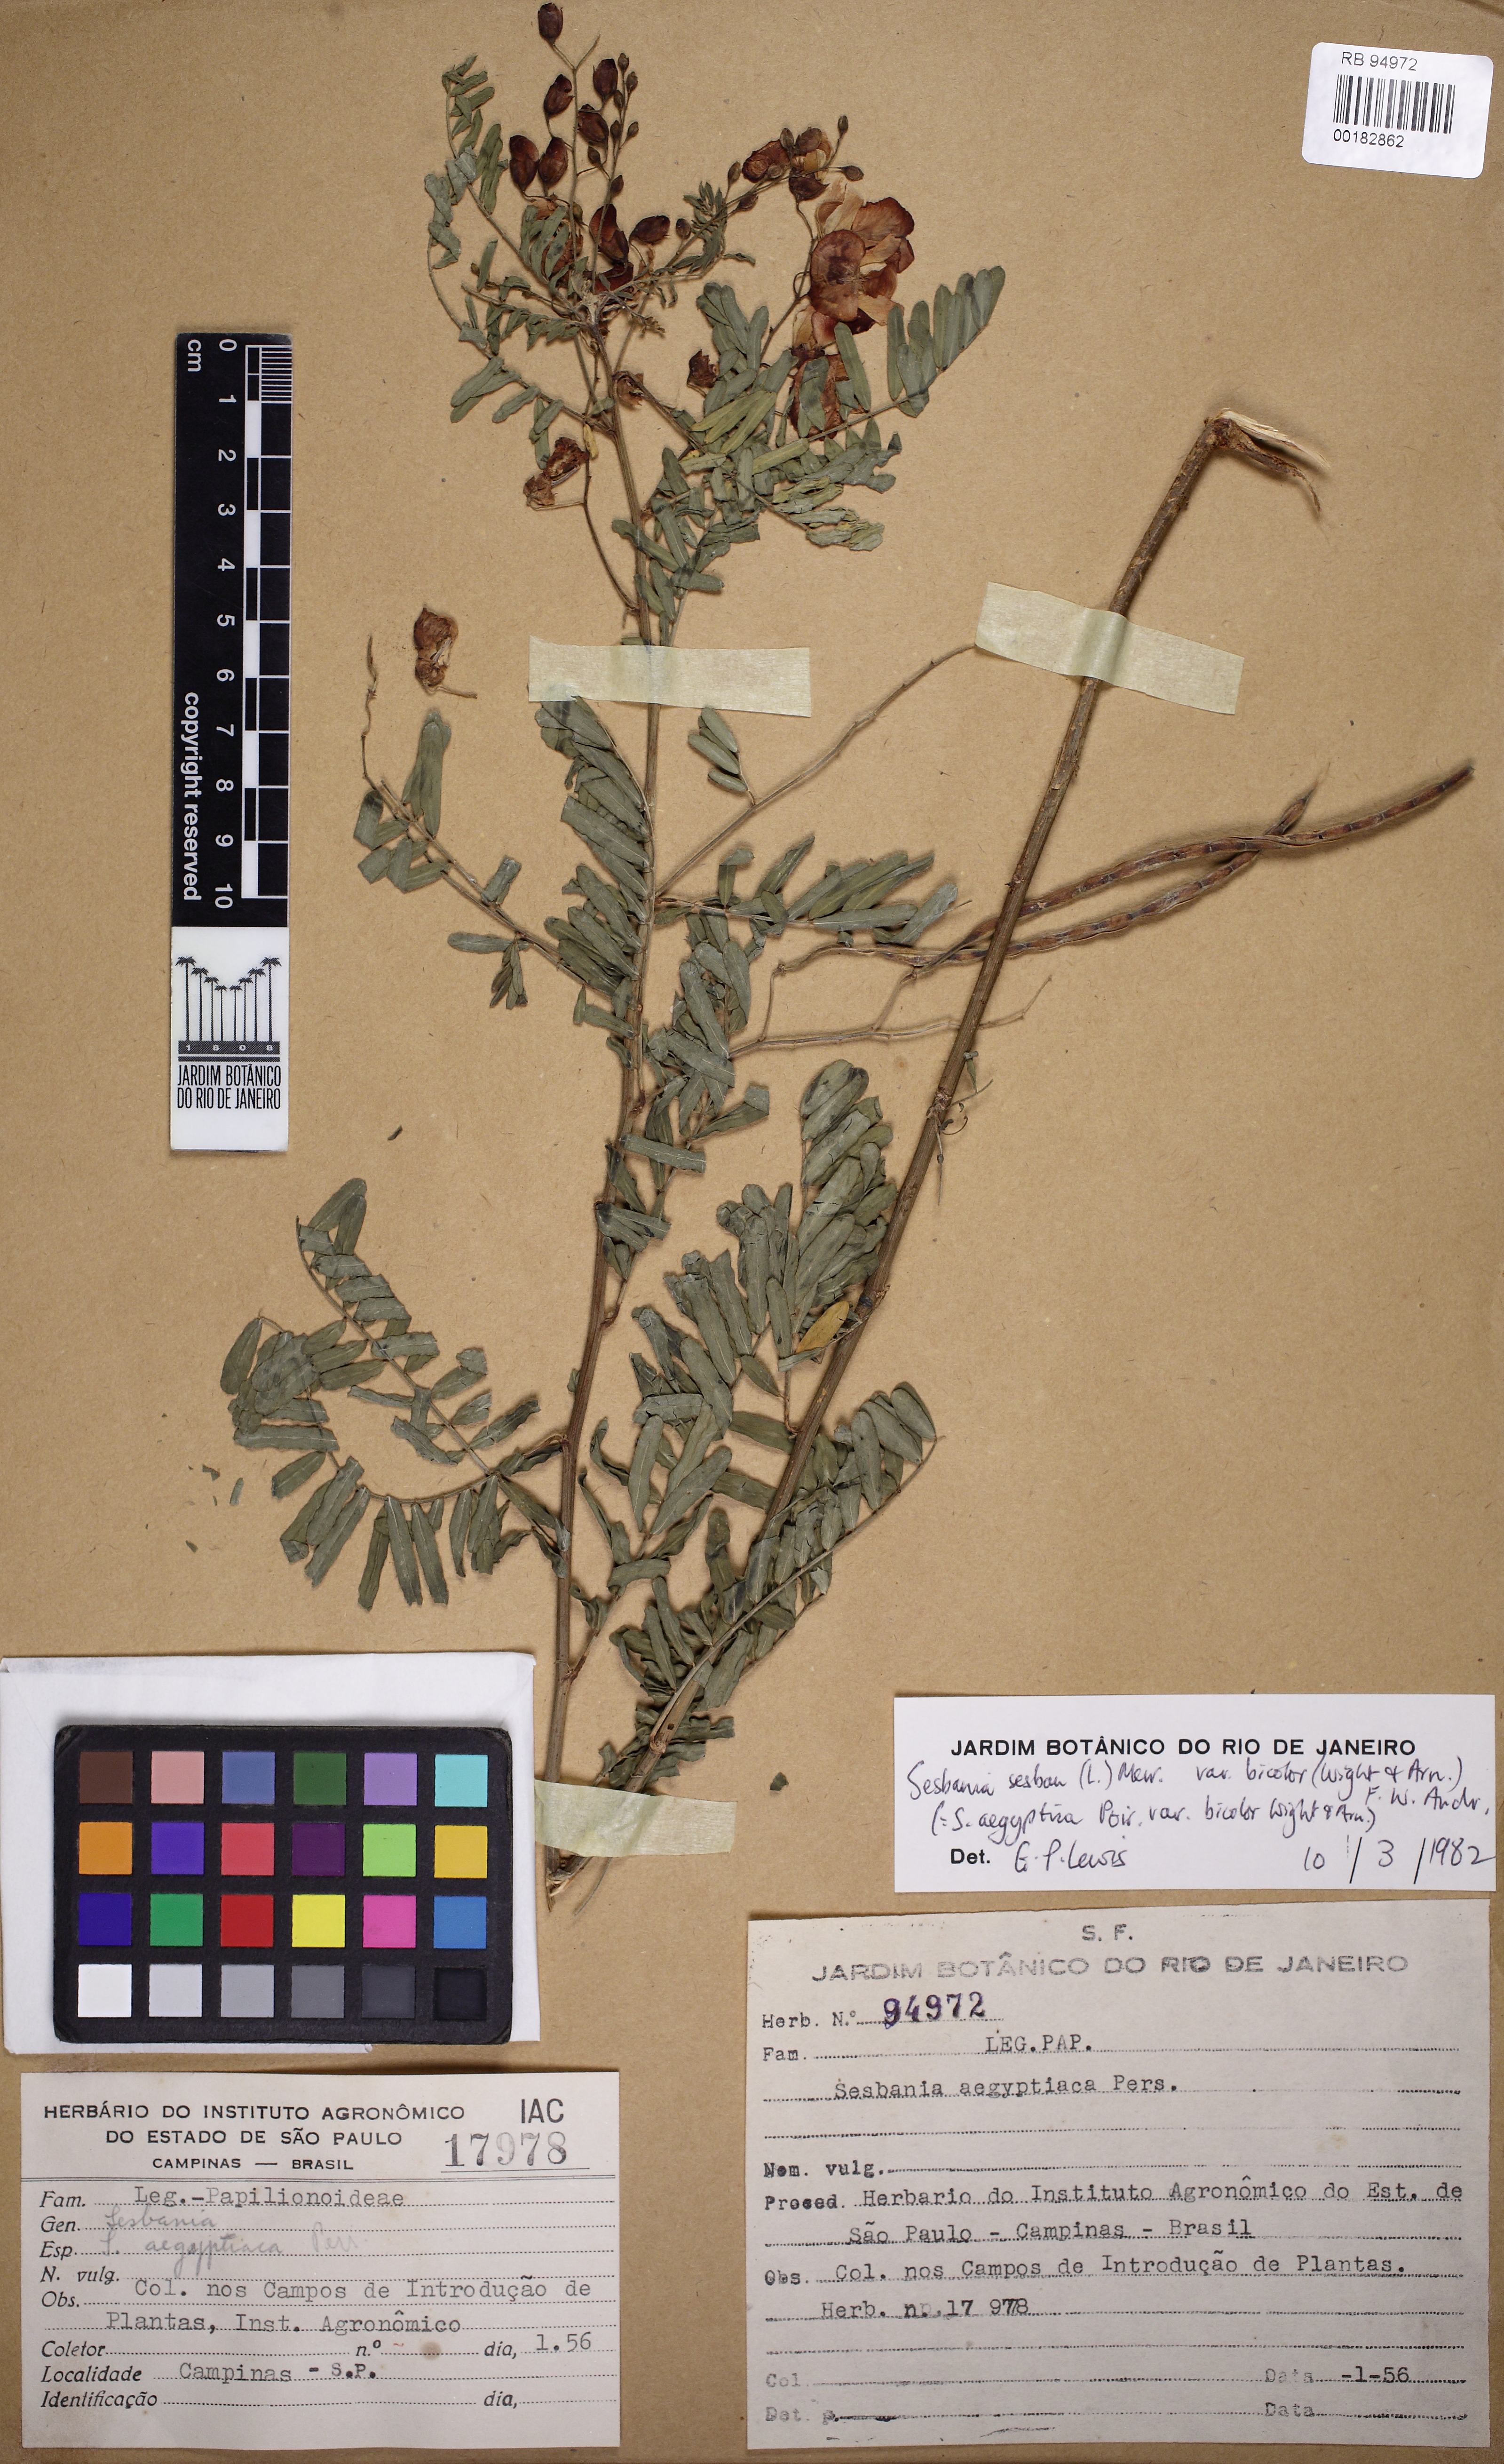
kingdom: Plantae
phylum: Tracheophyta
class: Magnoliopsida
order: Fabales
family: Fabaceae
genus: Sesbania
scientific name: Sesbania sesban
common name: Egyptian sesban
